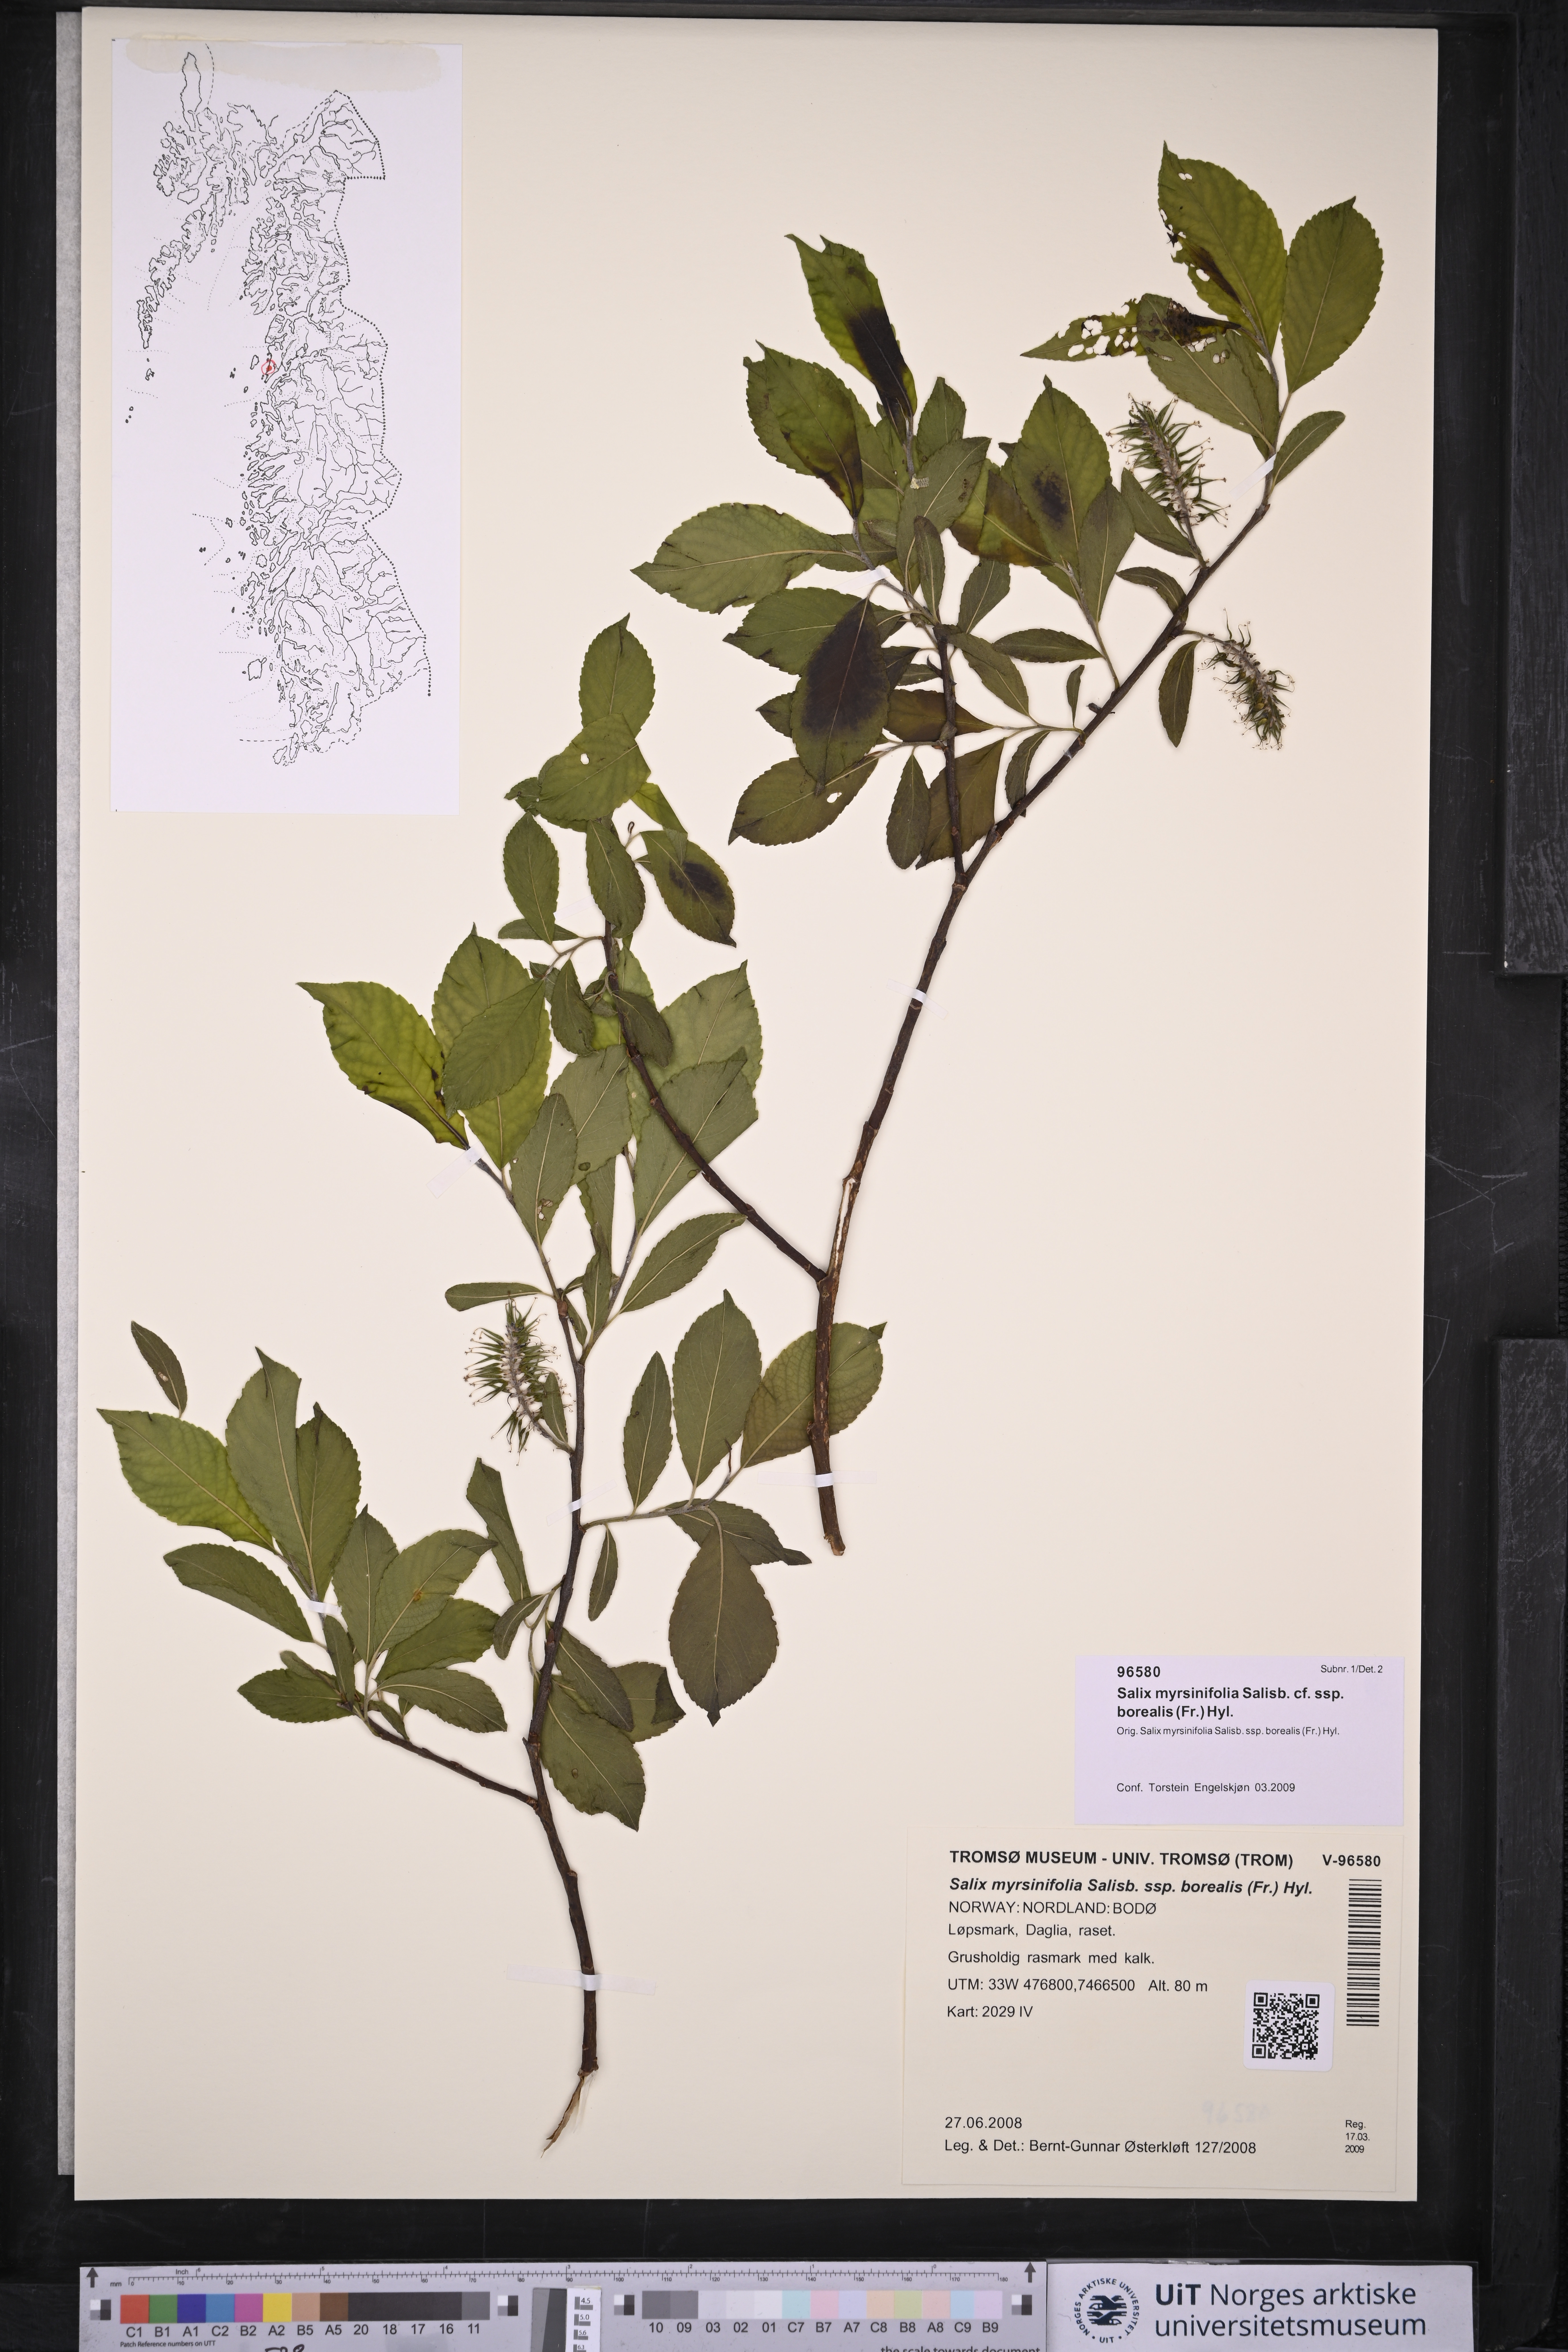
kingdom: Plantae
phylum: Tracheophyta
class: Magnoliopsida
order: Malpighiales
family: Salicaceae
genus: Salix
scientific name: Salix myrsinifolia
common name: Dark-leaved willow
